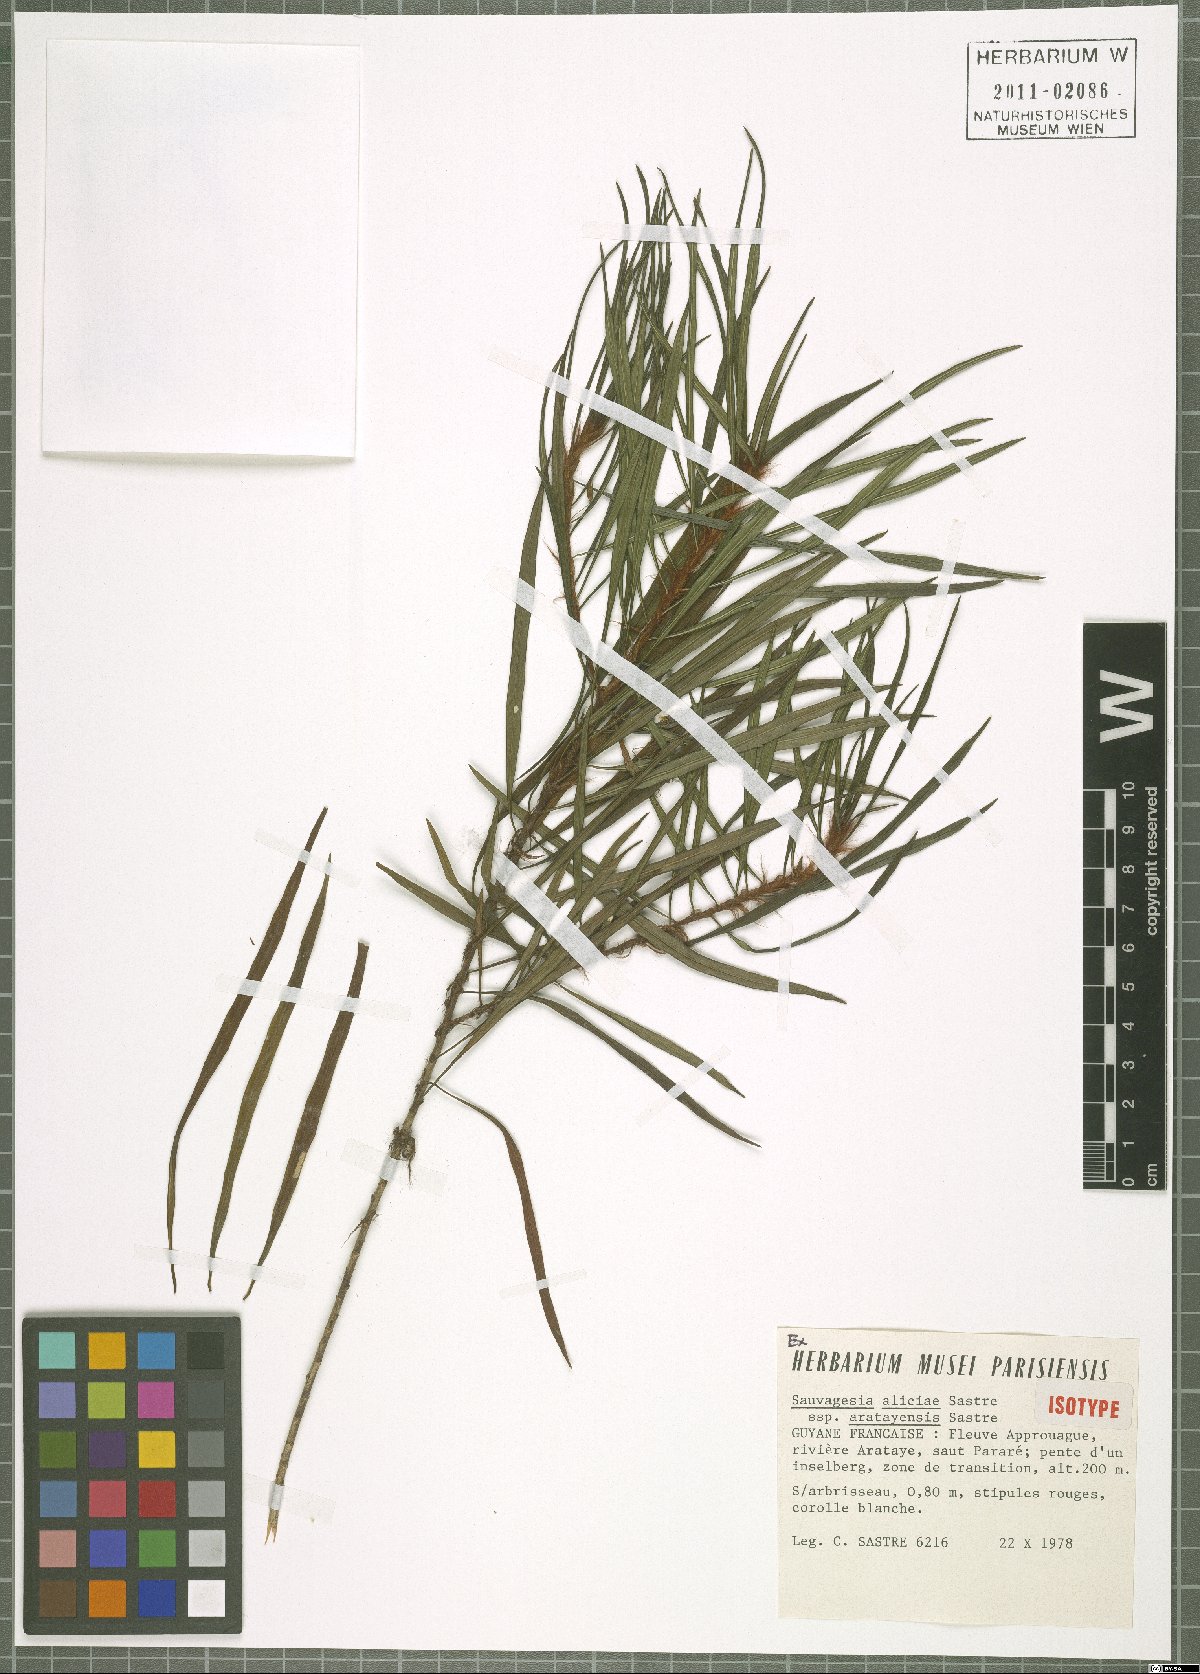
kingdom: Plantae
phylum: Tracheophyta
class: Magnoliopsida
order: Malpighiales
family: Ochnaceae
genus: Sauvagesia
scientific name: Sauvagesia aliciae
